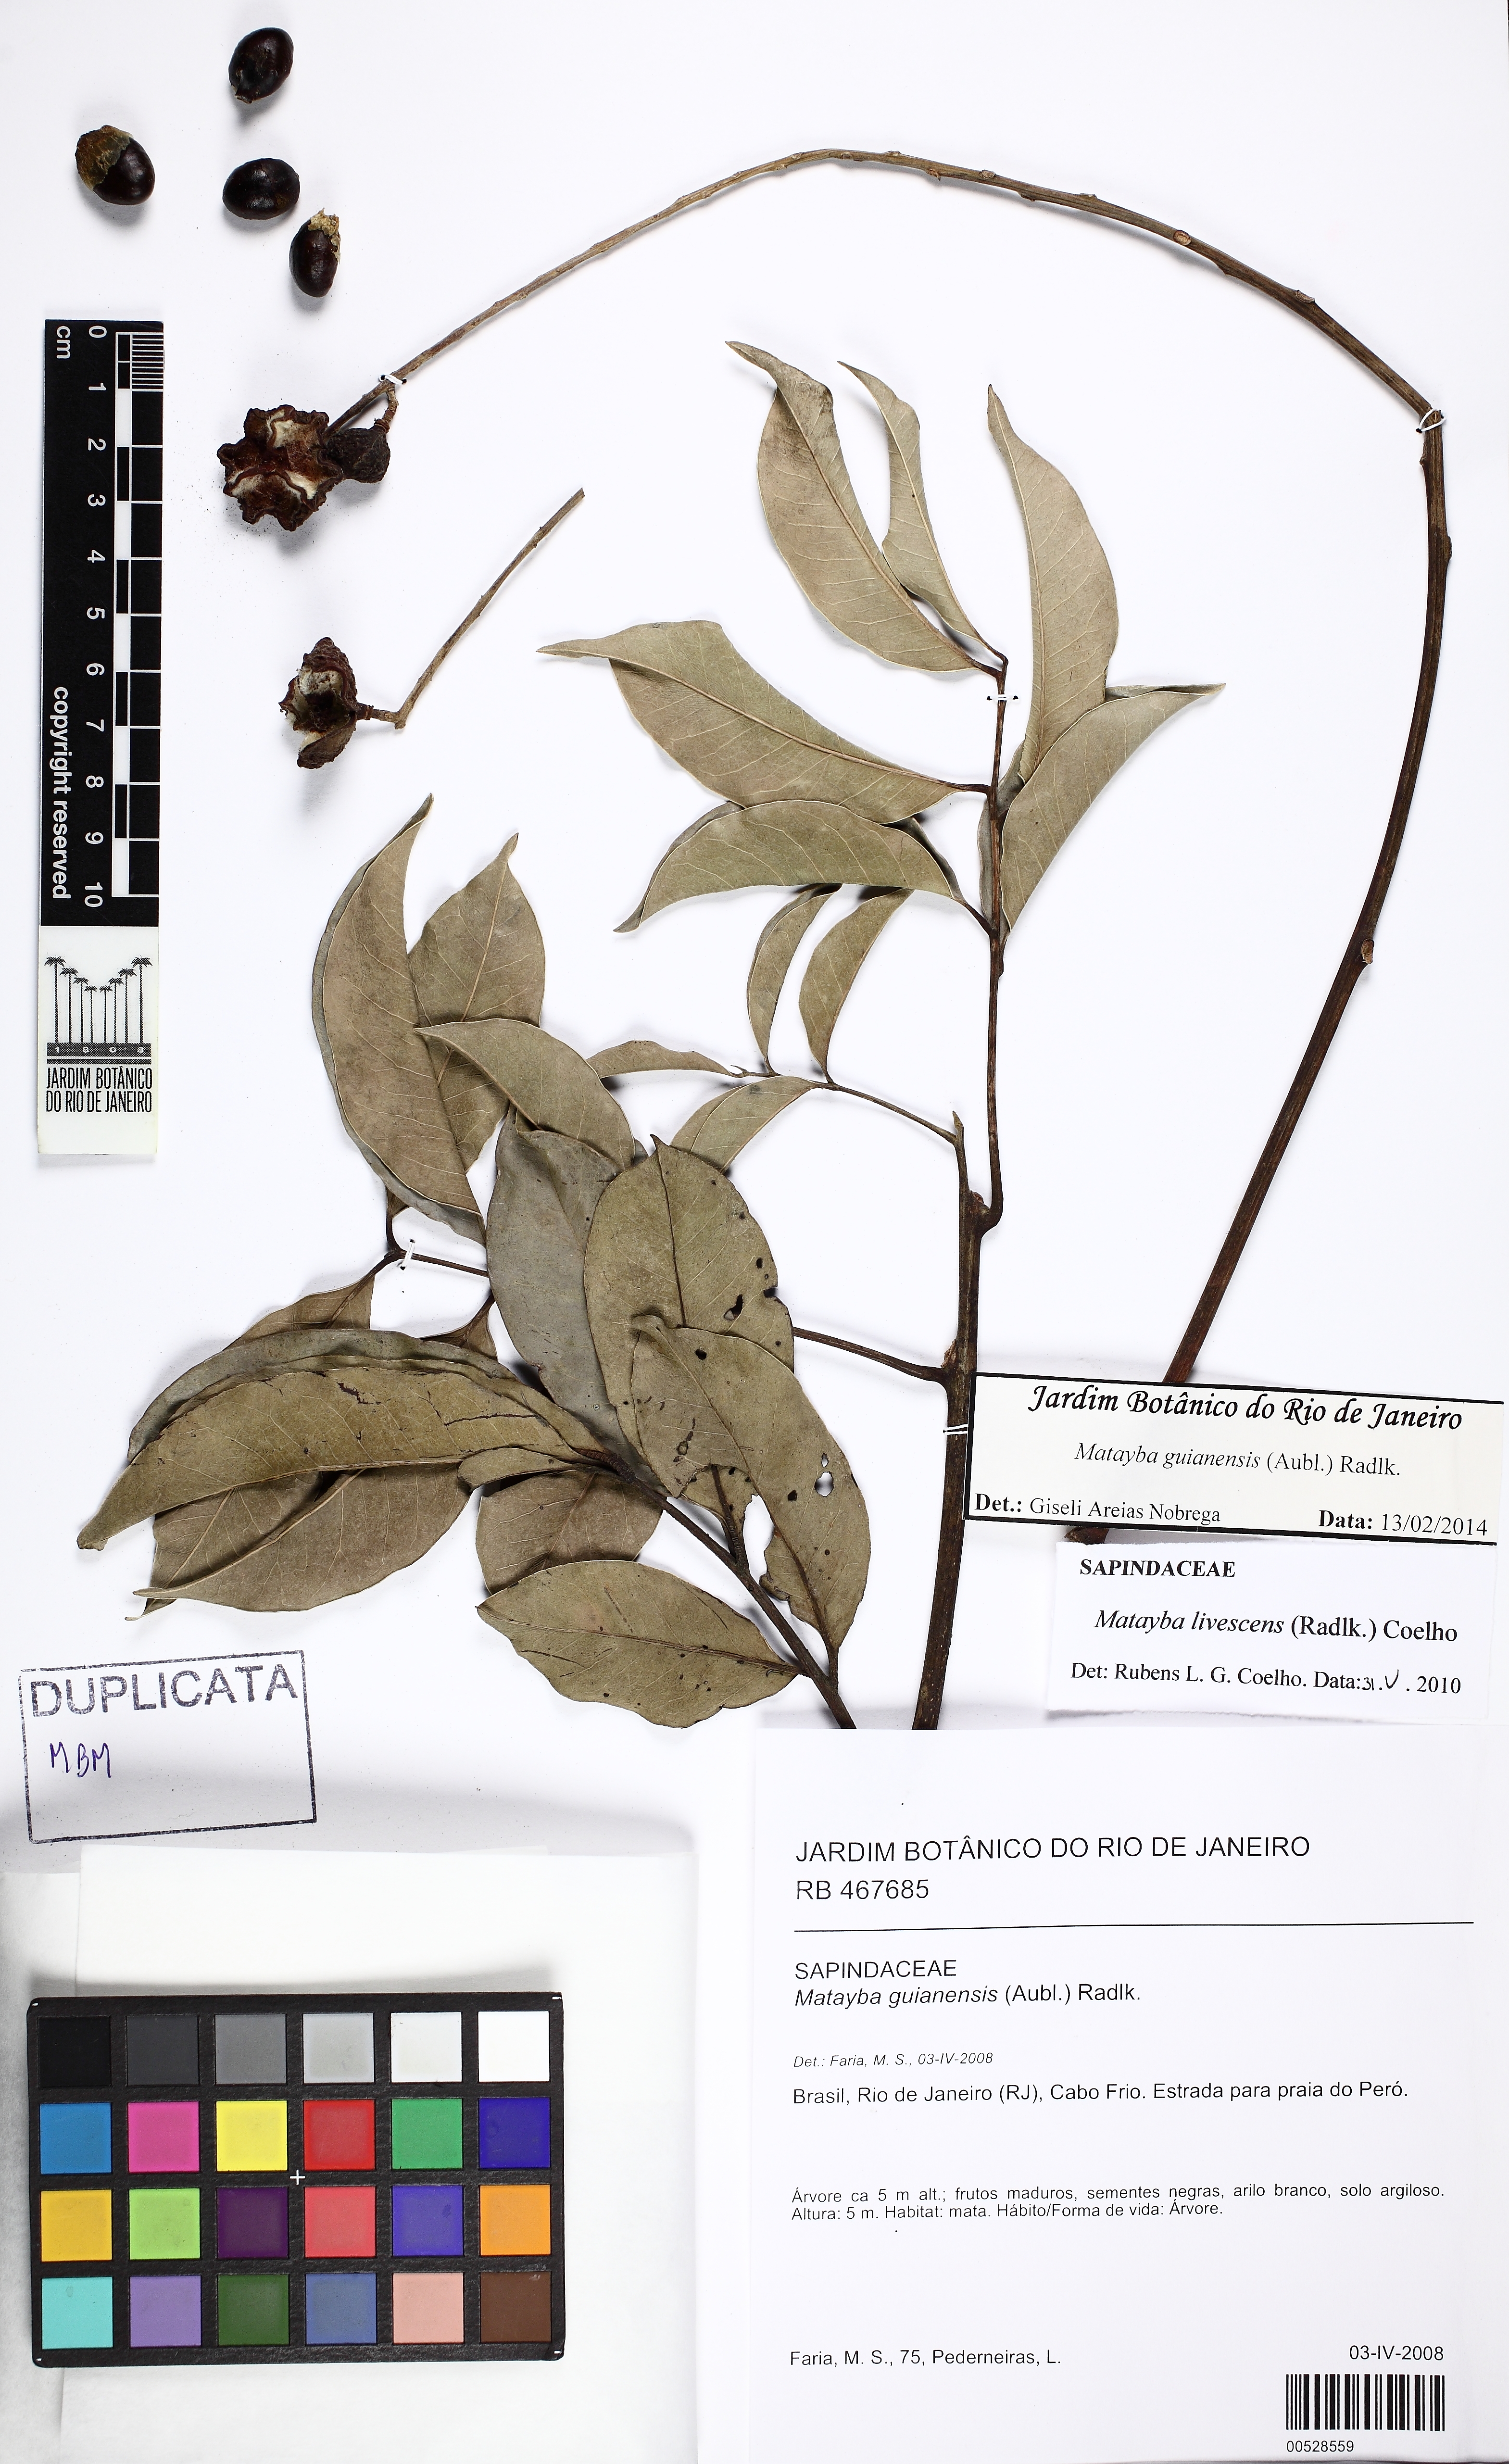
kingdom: Plantae
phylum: Tracheophyta
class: Magnoliopsida
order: Sapindales
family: Sapindaceae
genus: Matayba
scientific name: Matayba guianensis
